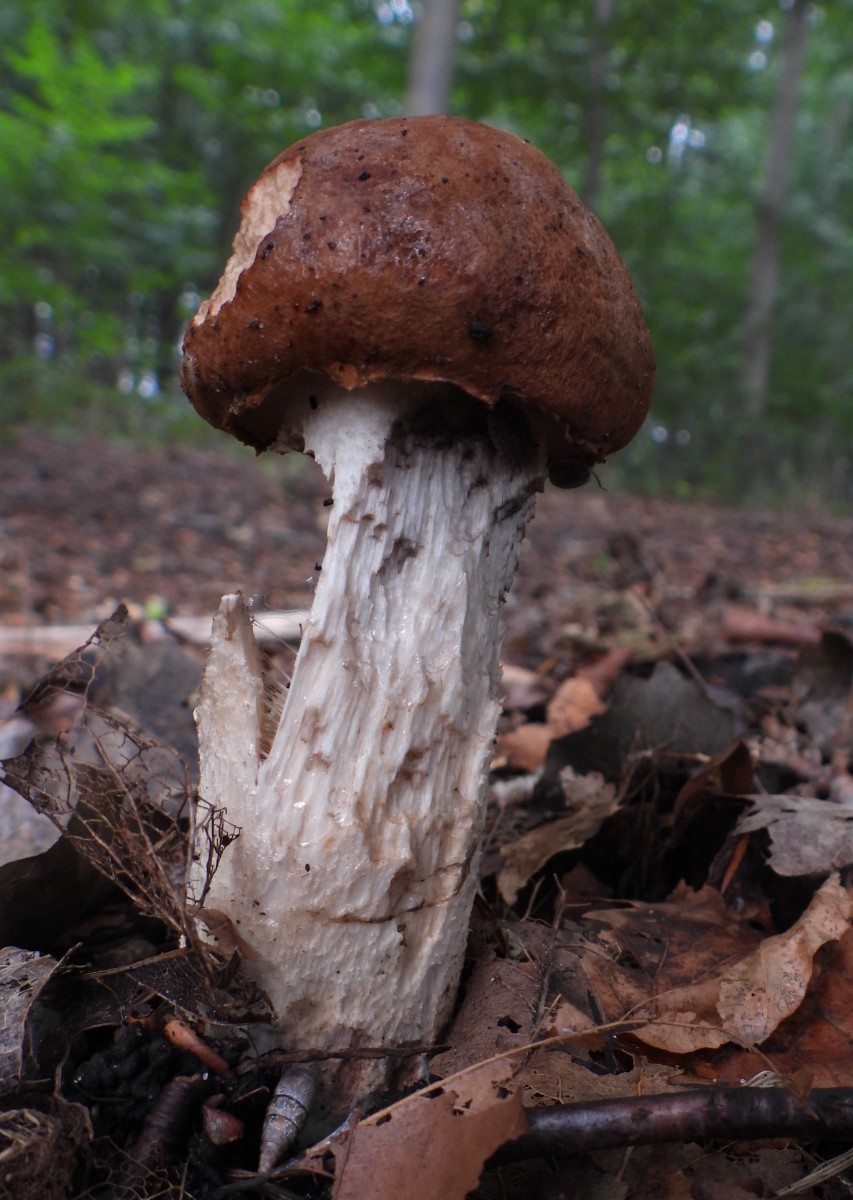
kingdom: Fungi
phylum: Basidiomycota
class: Agaricomycetes
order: Boletales
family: Boletaceae
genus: Leccinum
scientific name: Leccinum aurantiacum
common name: rustrød skælrørhat
